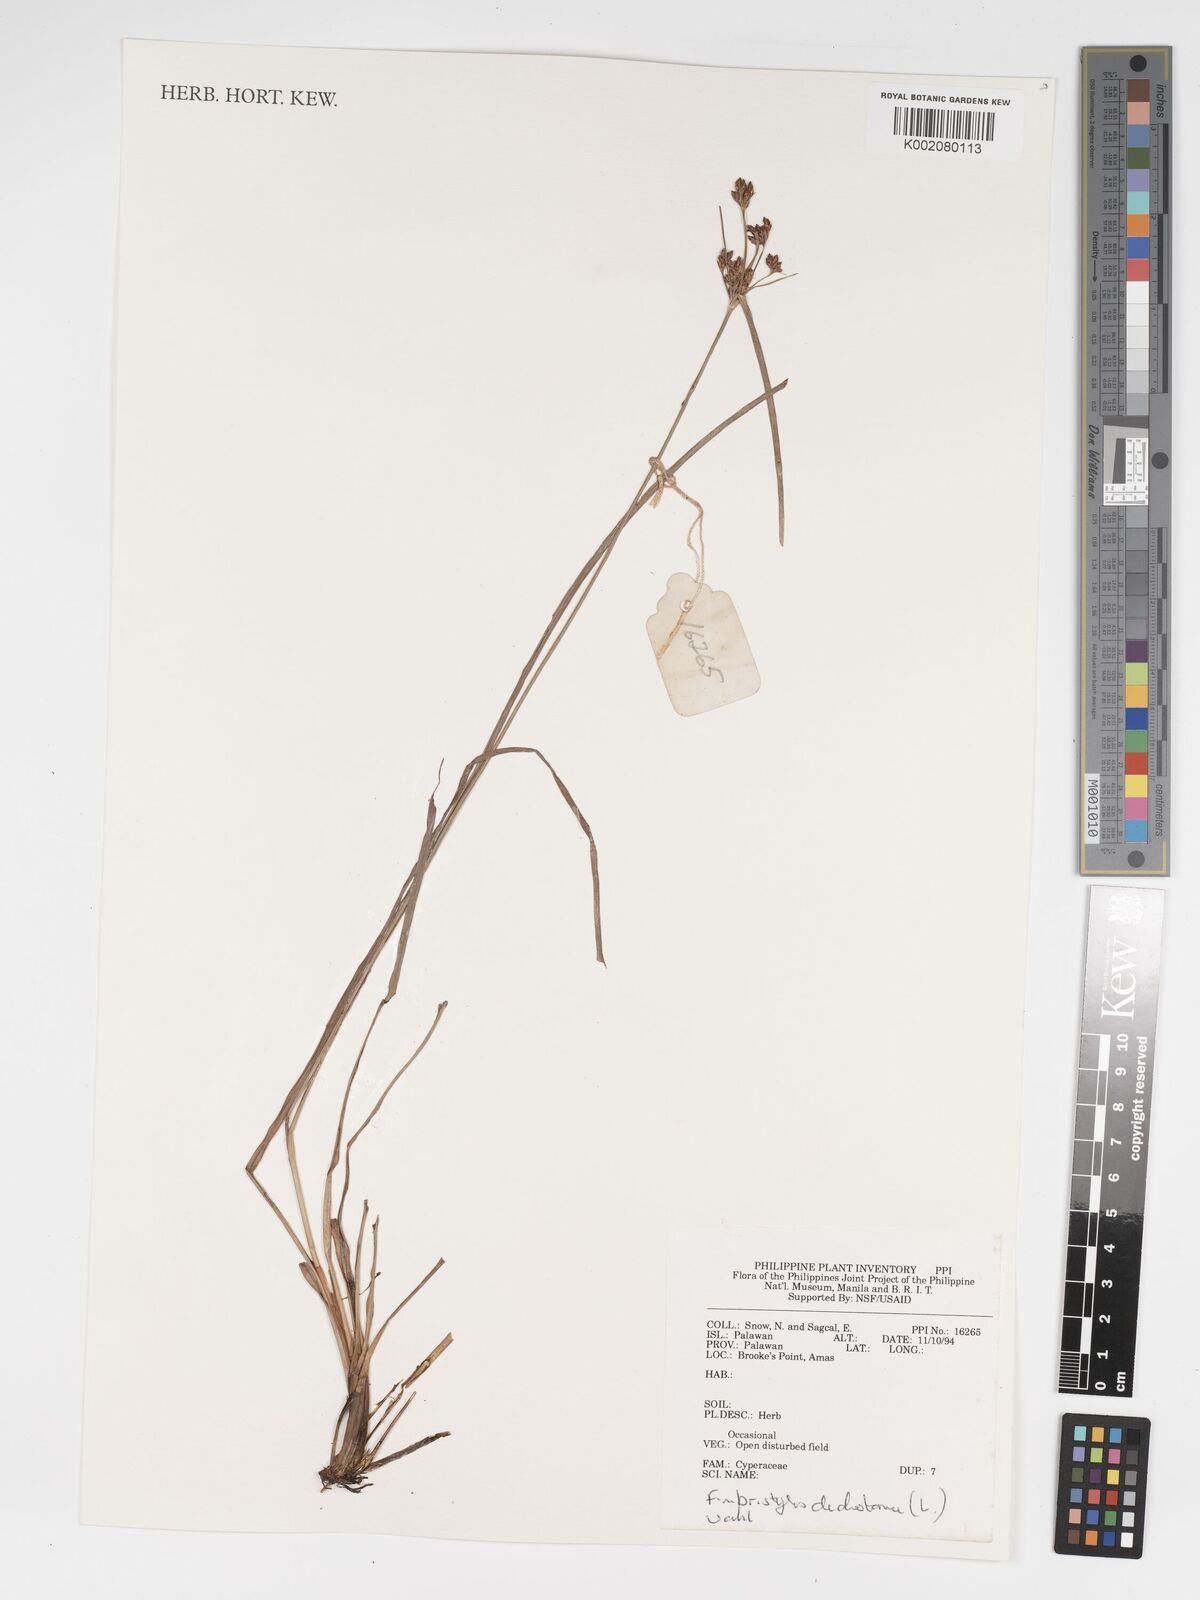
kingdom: Plantae
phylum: Tracheophyta
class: Liliopsida
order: Poales
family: Cyperaceae
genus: Fimbristylis
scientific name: Fimbristylis dichotoma
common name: Forked fimbry
